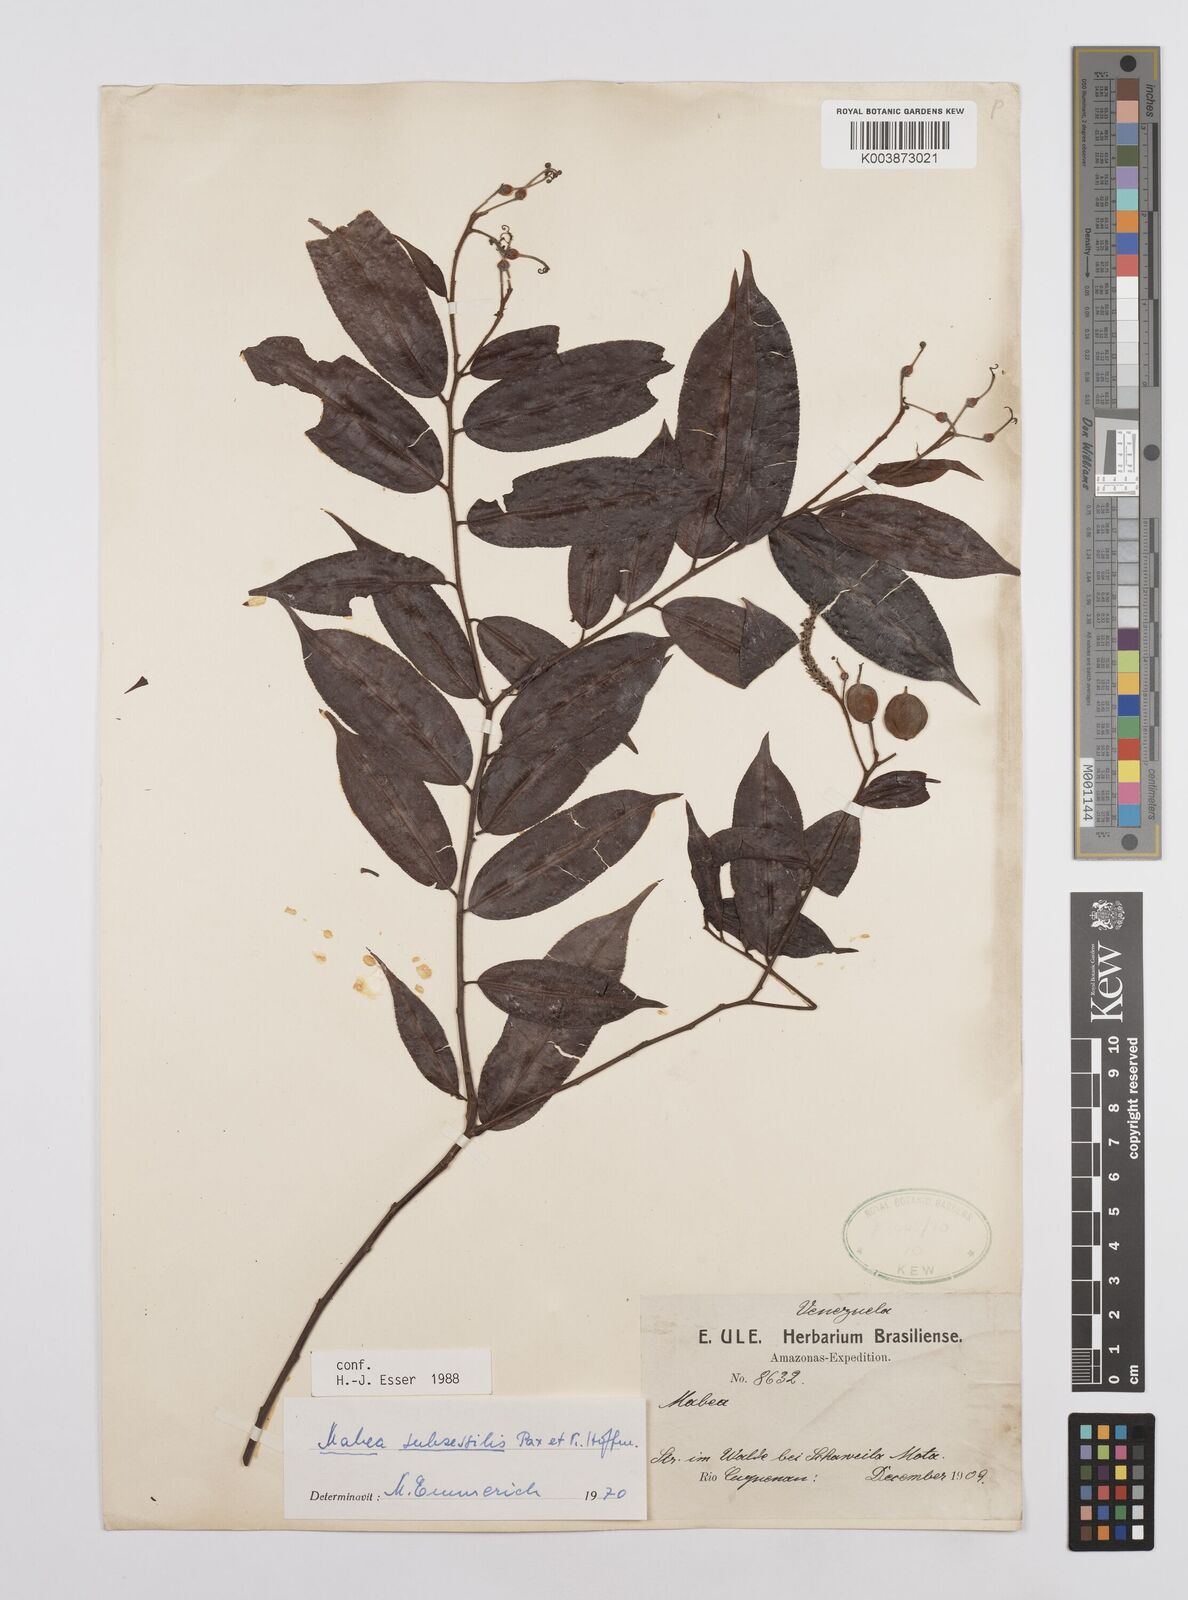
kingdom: Plantae
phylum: Tracheophyta
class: Magnoliopsida
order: Malpighiales
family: Euphorbiaceae
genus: Mabea
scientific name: Mabea subsessilis
